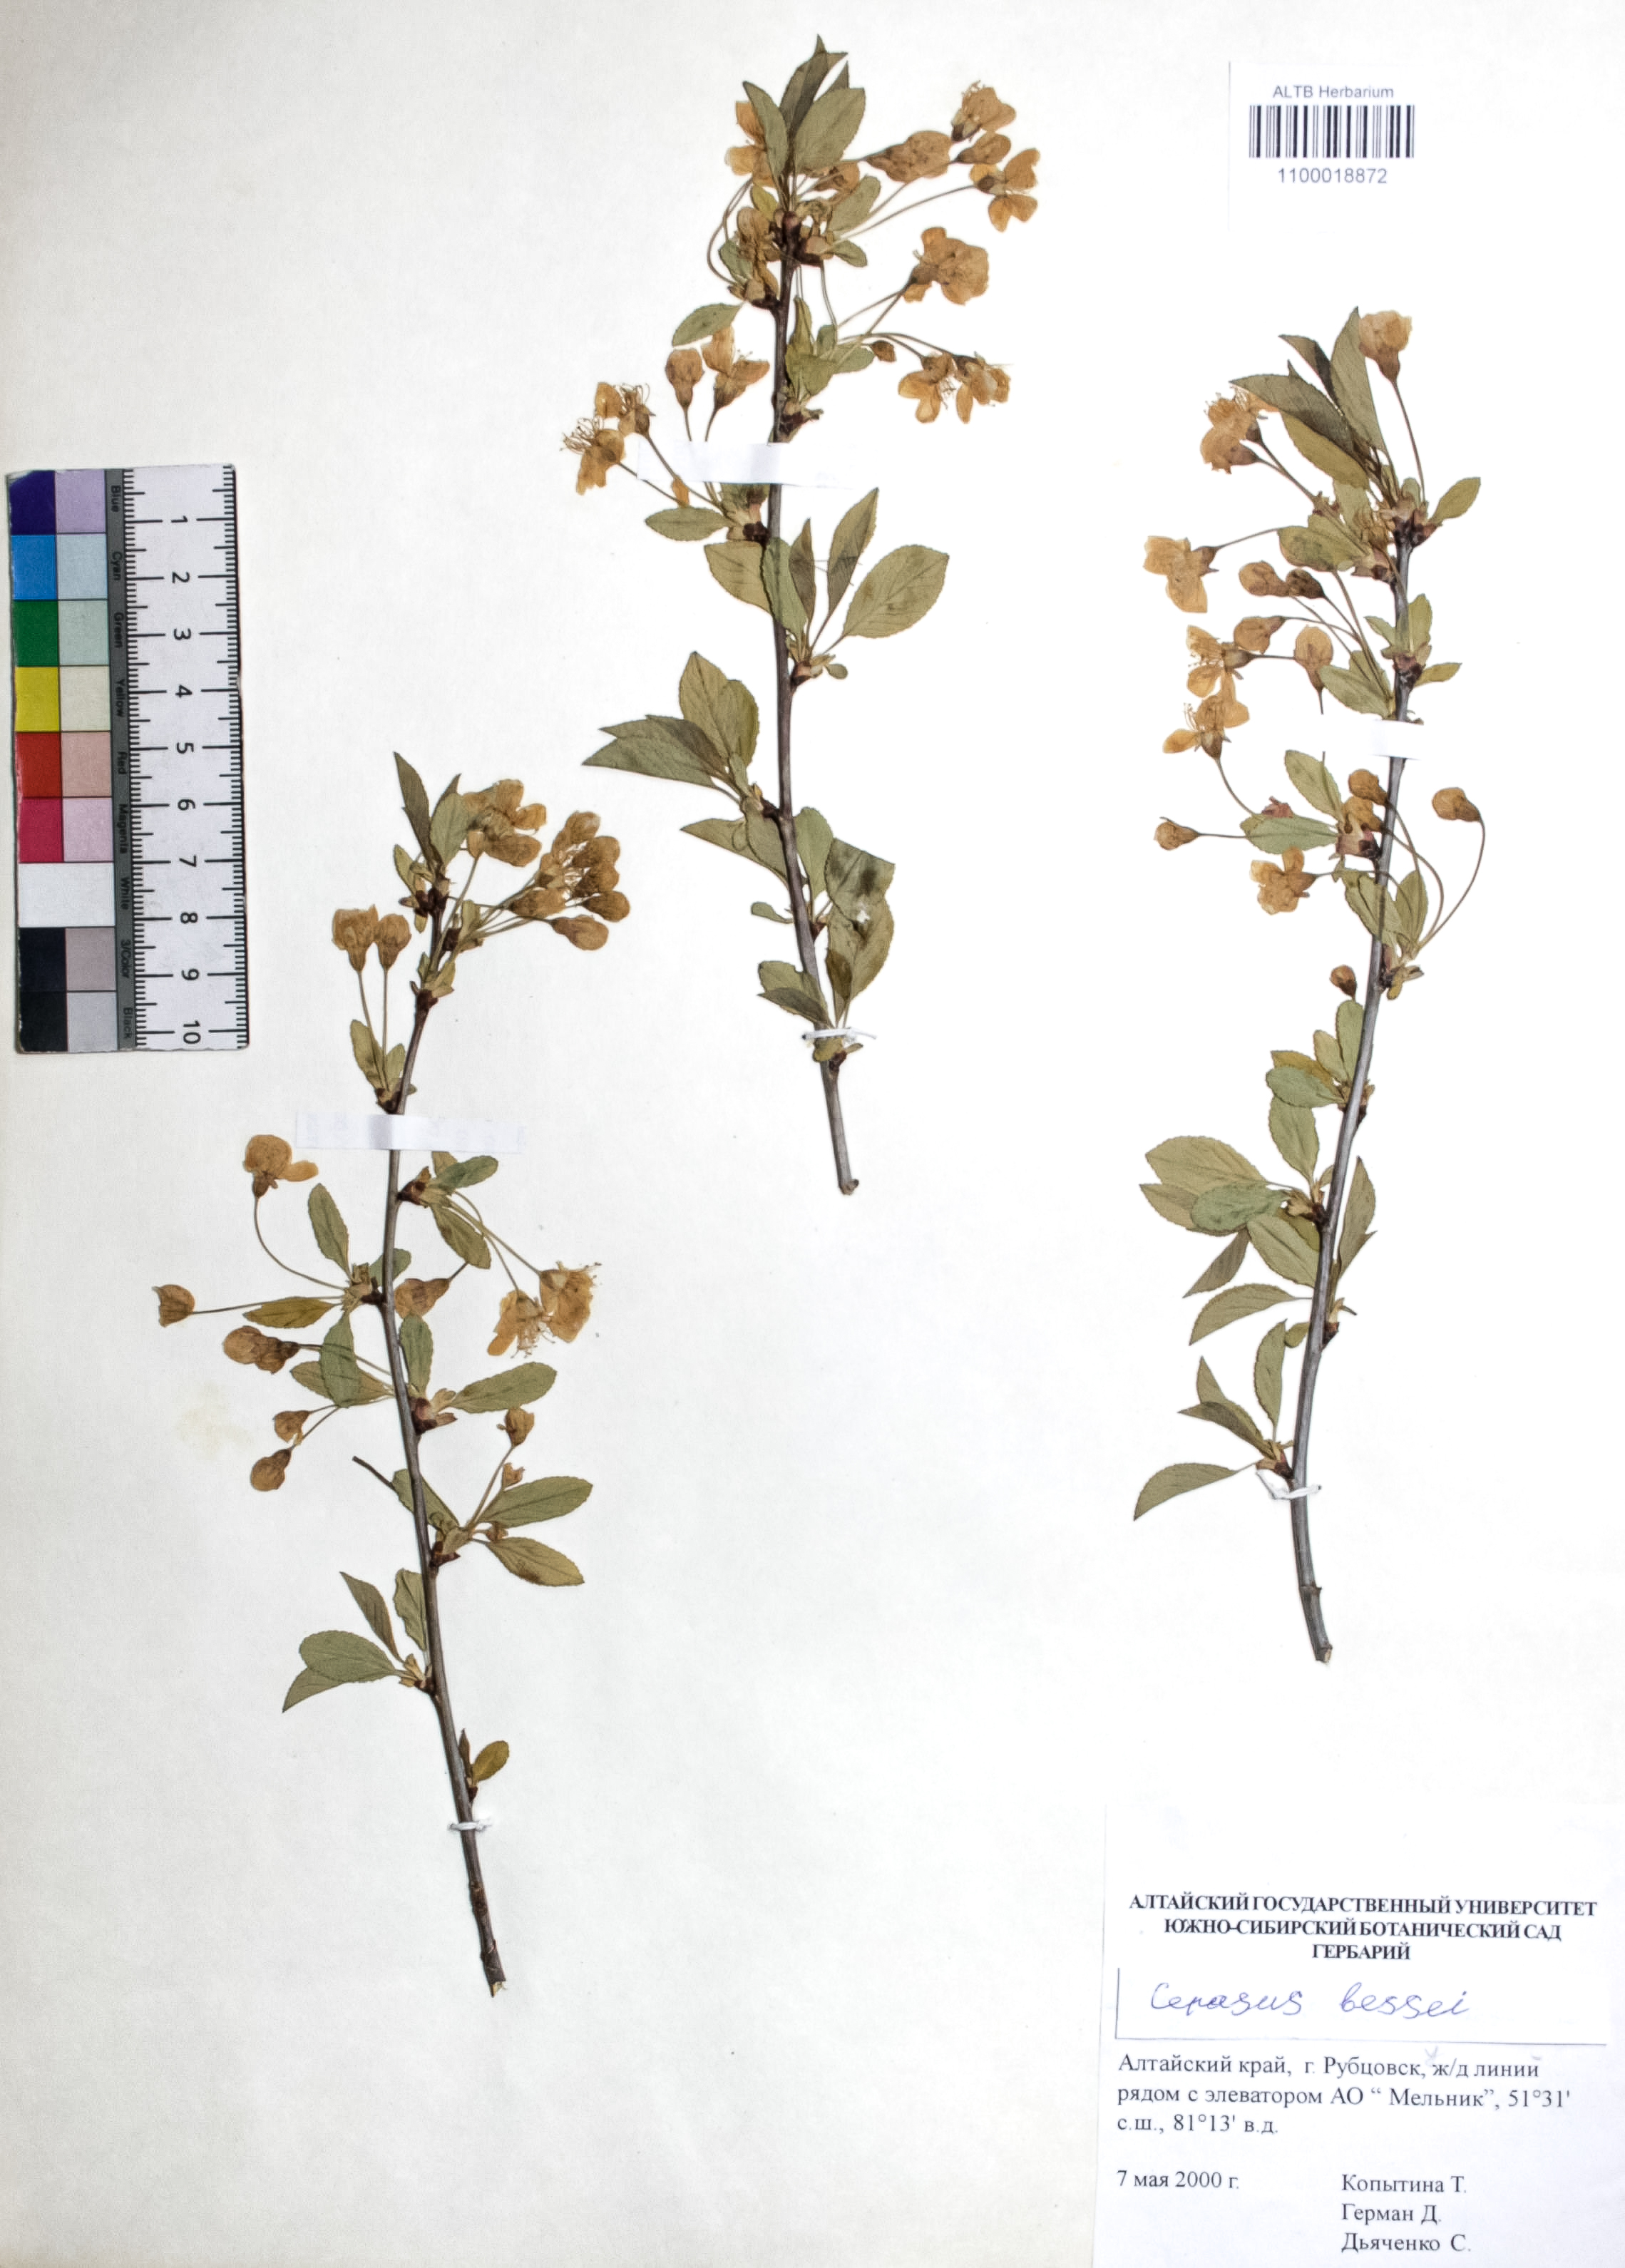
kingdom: Plantae
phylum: Tracheophyta
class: Magnoliopsida
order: Rosales
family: Rosaceae
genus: Prunus
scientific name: Prunus pumila
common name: Dwarf cherry
